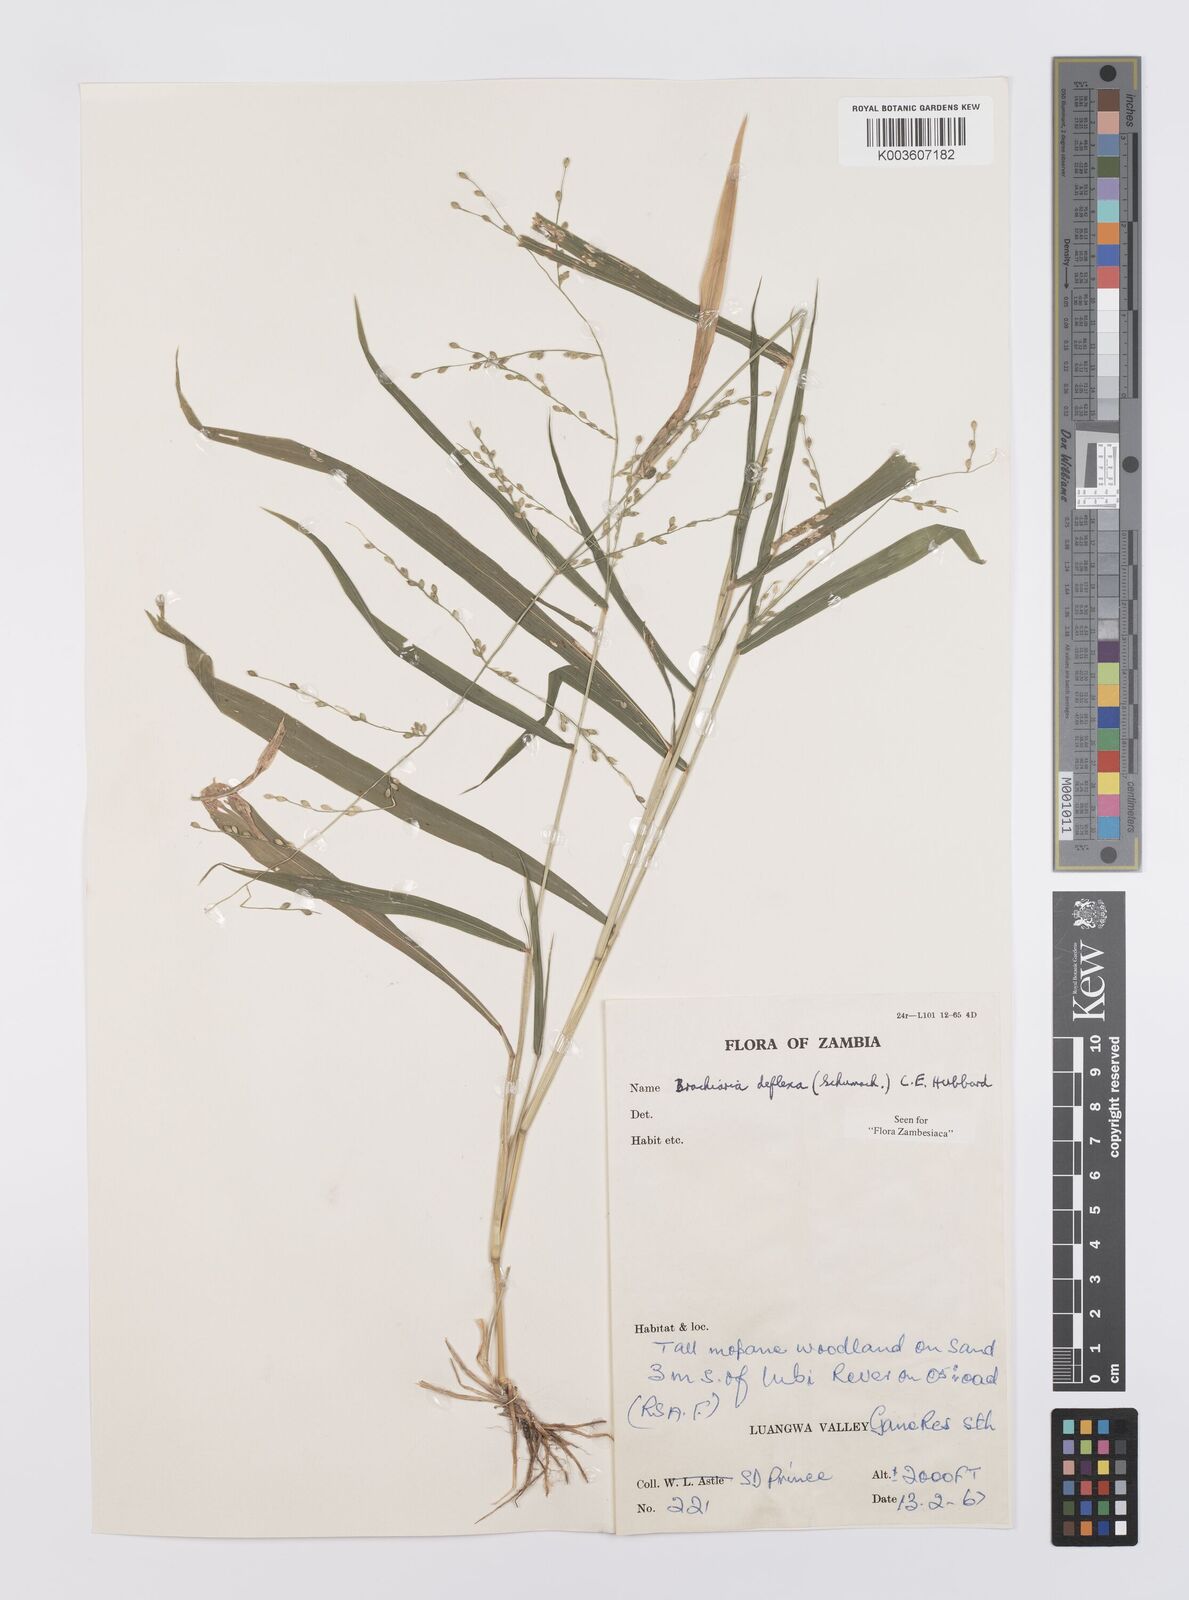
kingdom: Plantae
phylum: Tracheophyta
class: Liliopsida
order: Poales
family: Poaceae
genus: Urochloa
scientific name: Urochloa deflexa
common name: Guinea millet
